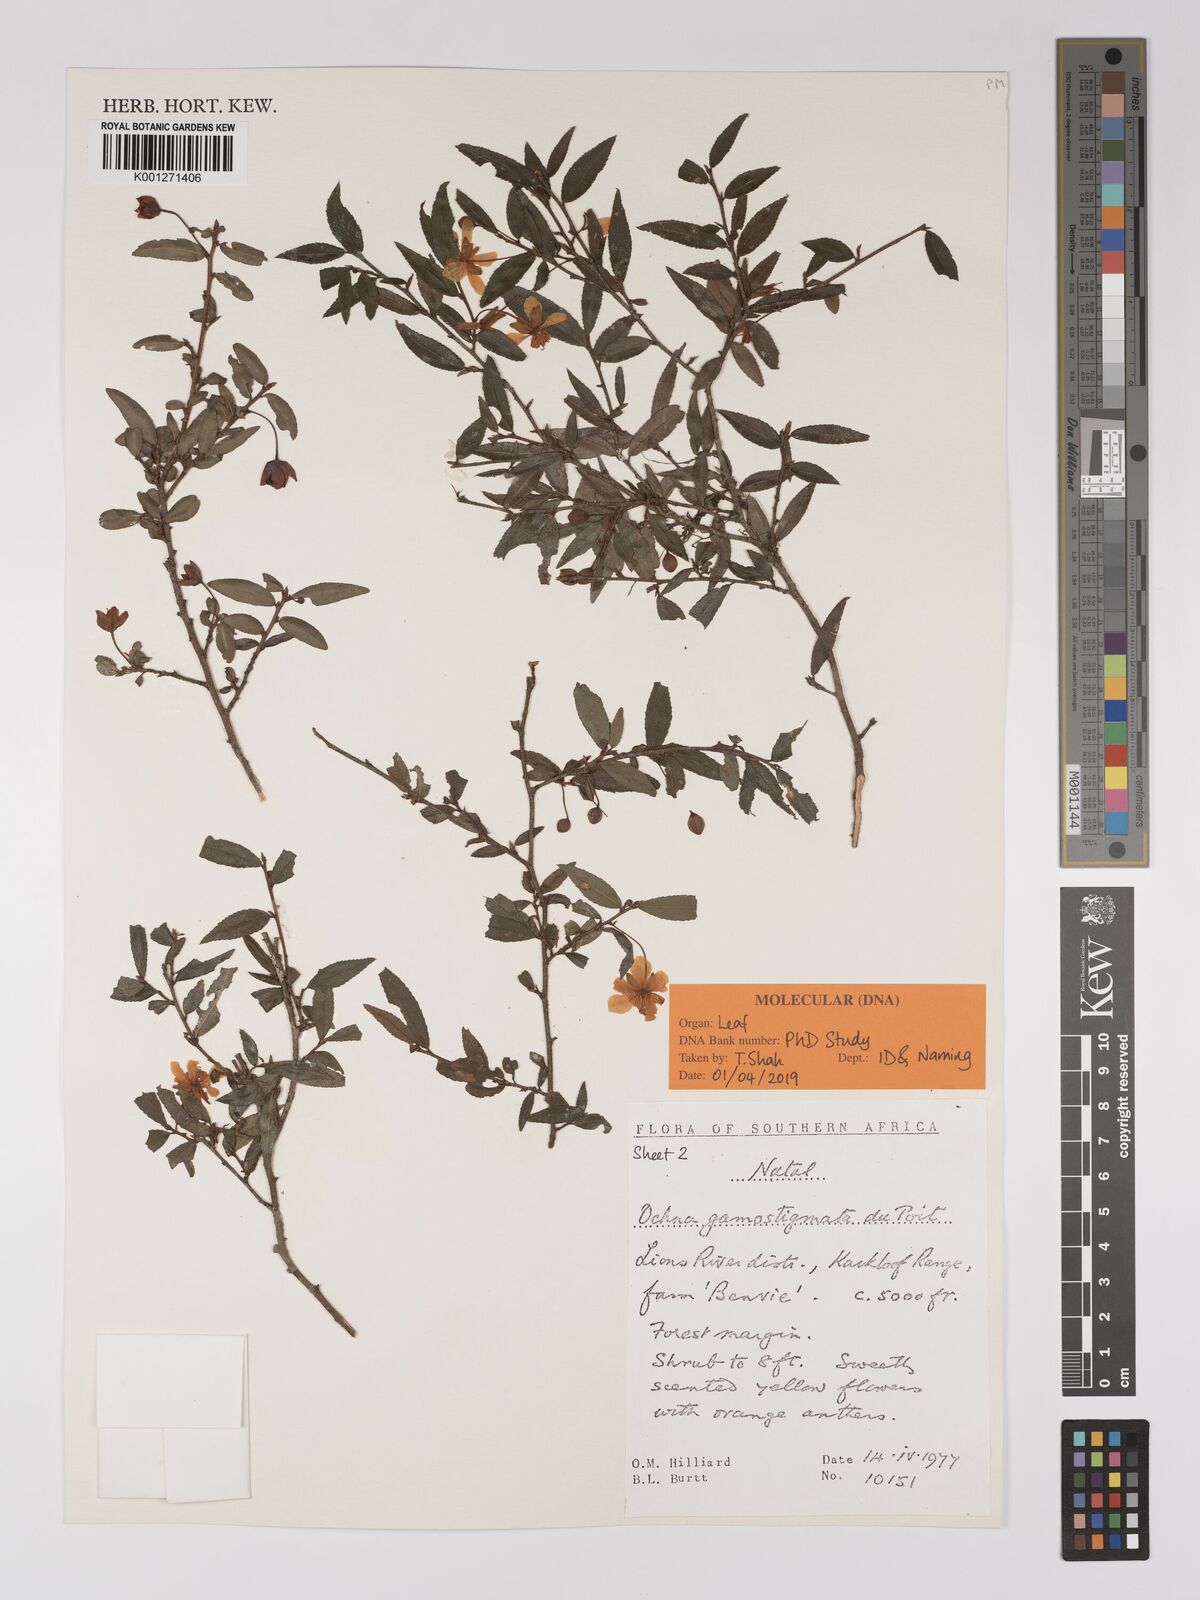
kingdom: Plantae
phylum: Tracheophyta
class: Magnoliopsida
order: Malpighiales
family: Ochnaceae
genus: Ochna
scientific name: Ochna gamostigmata
